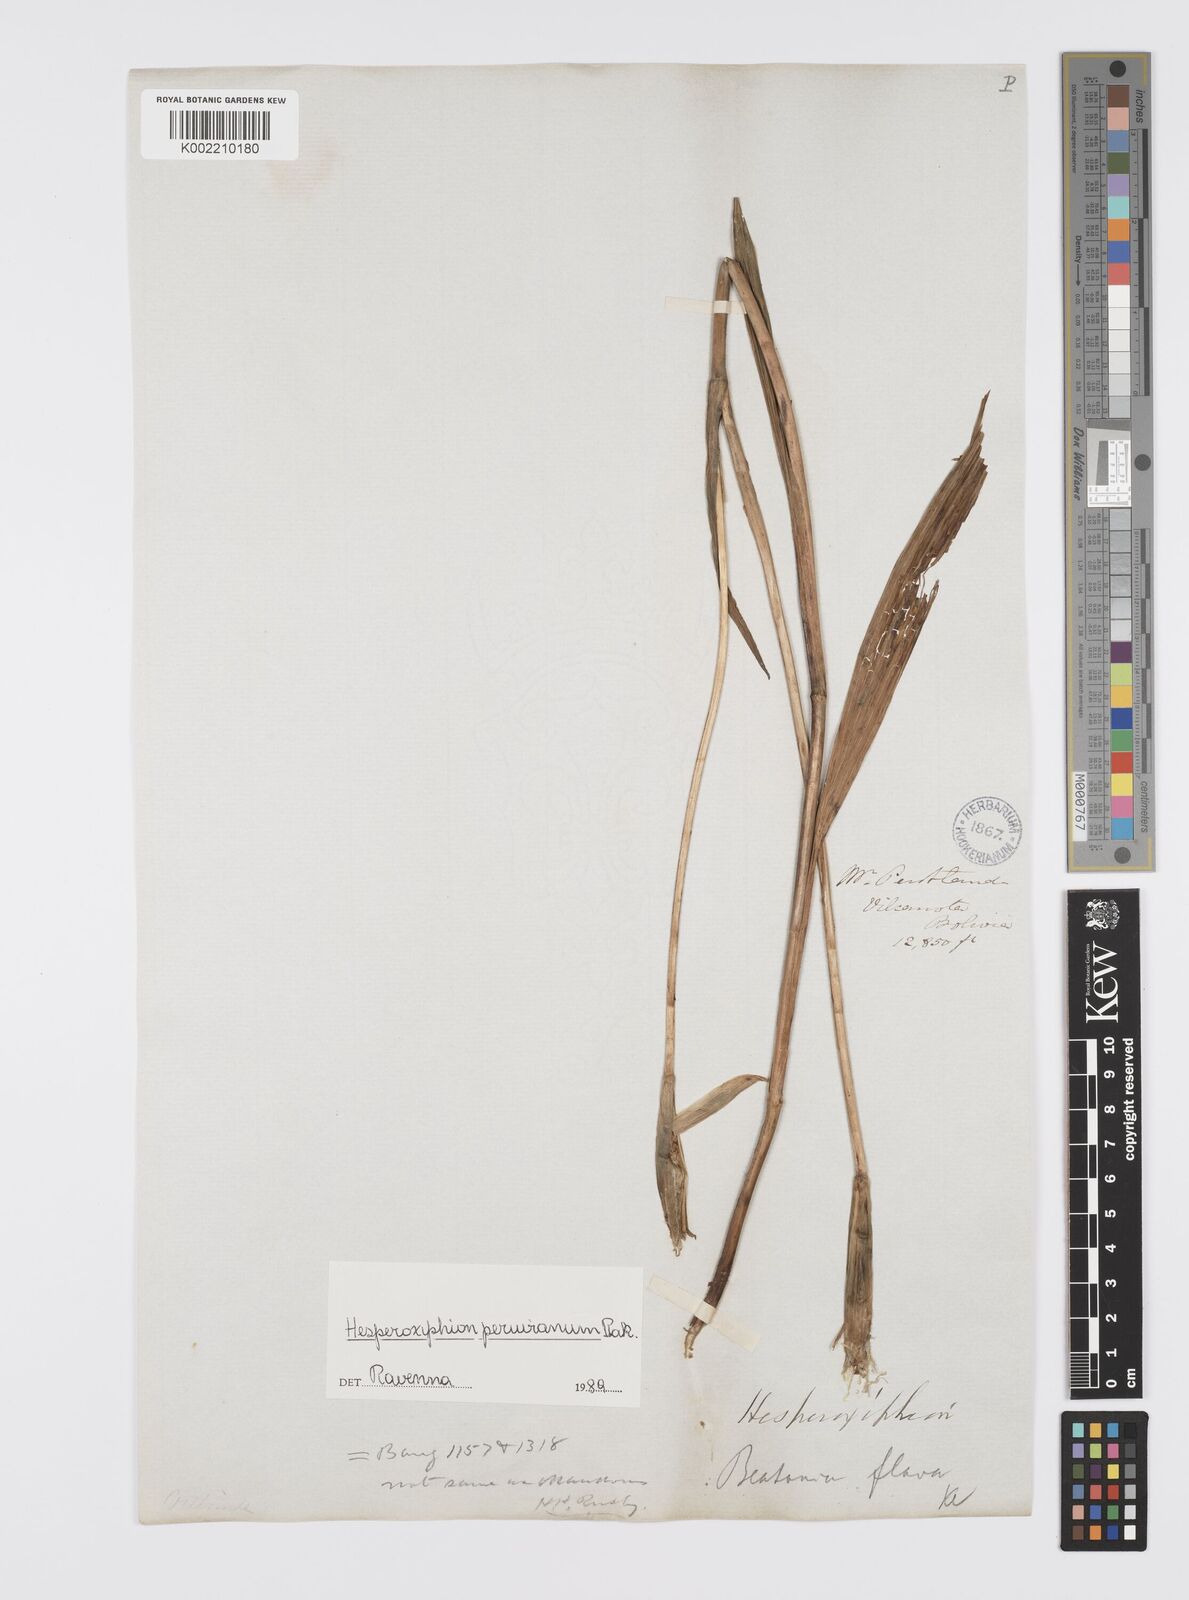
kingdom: Plantae
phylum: Tracheophyta
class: Liliopsida
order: Asparagales
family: Iridaceae
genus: Hesperoxiphion
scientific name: Hesperoxiphion peruvianum
